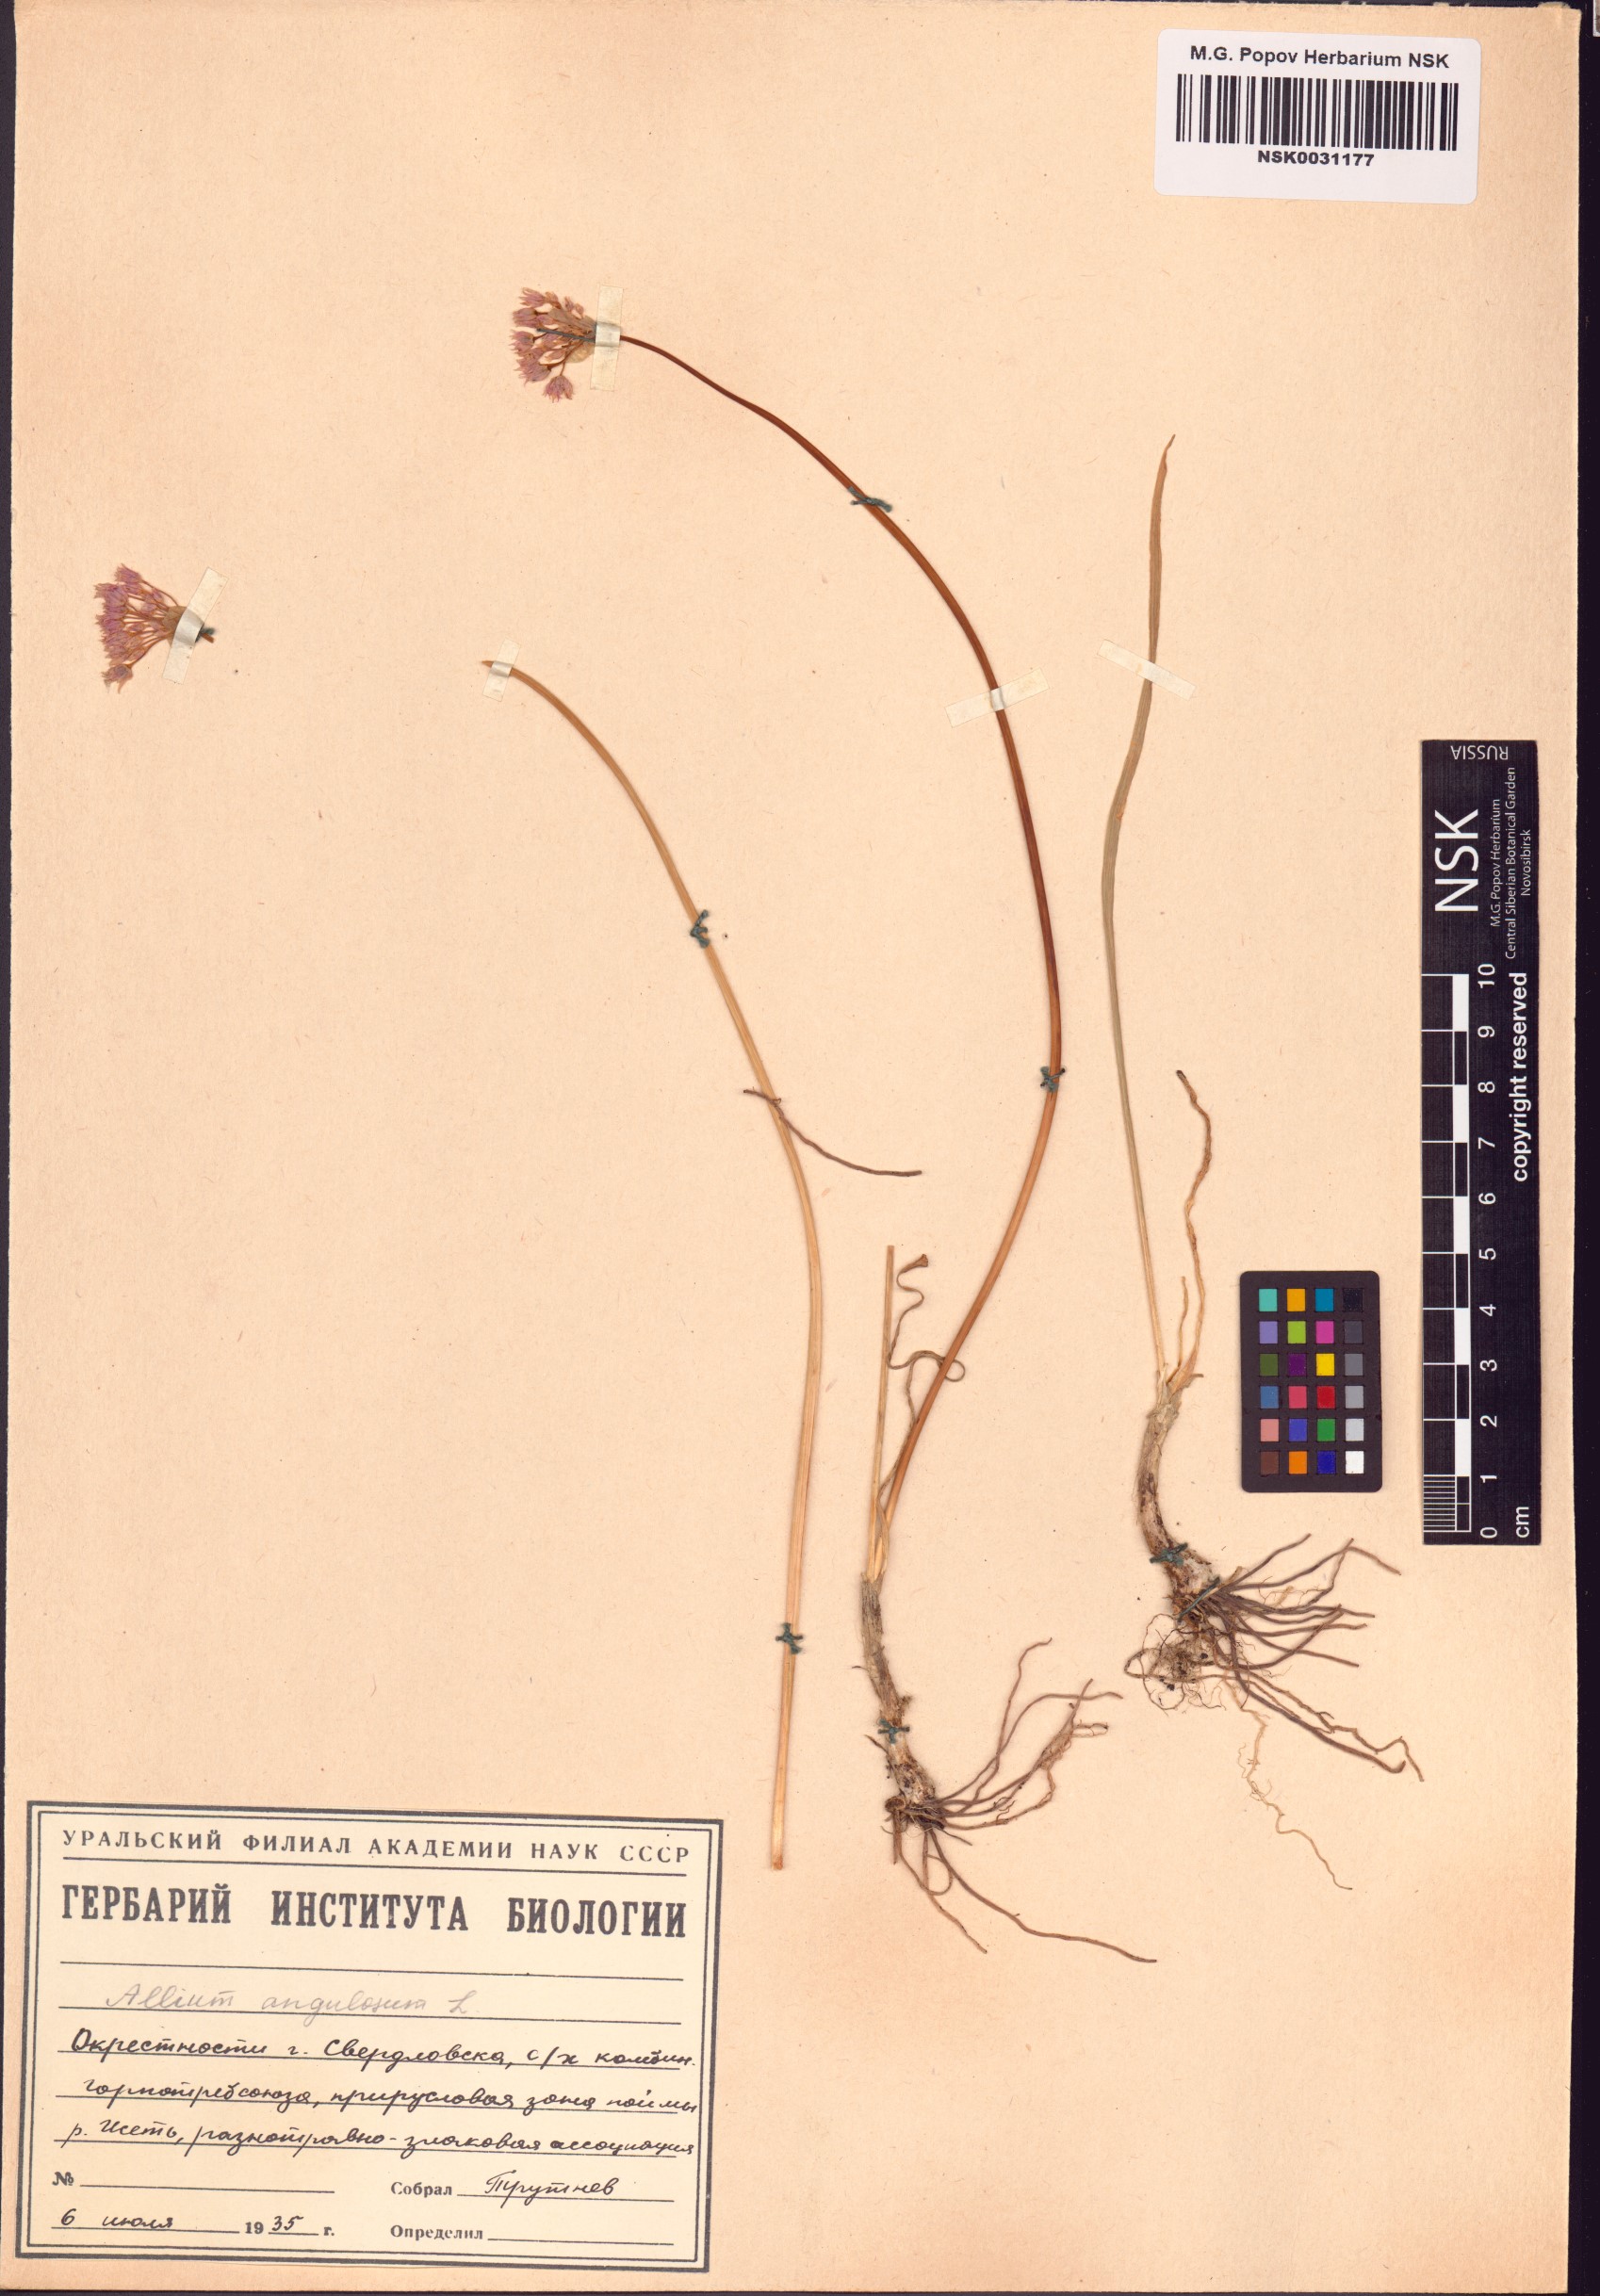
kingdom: Plantae
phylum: Tracheophyta
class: Liliopsida
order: Asparagales
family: Amaryllidaceae
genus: Allium
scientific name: Allium angulosum
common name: Mouse garlic
